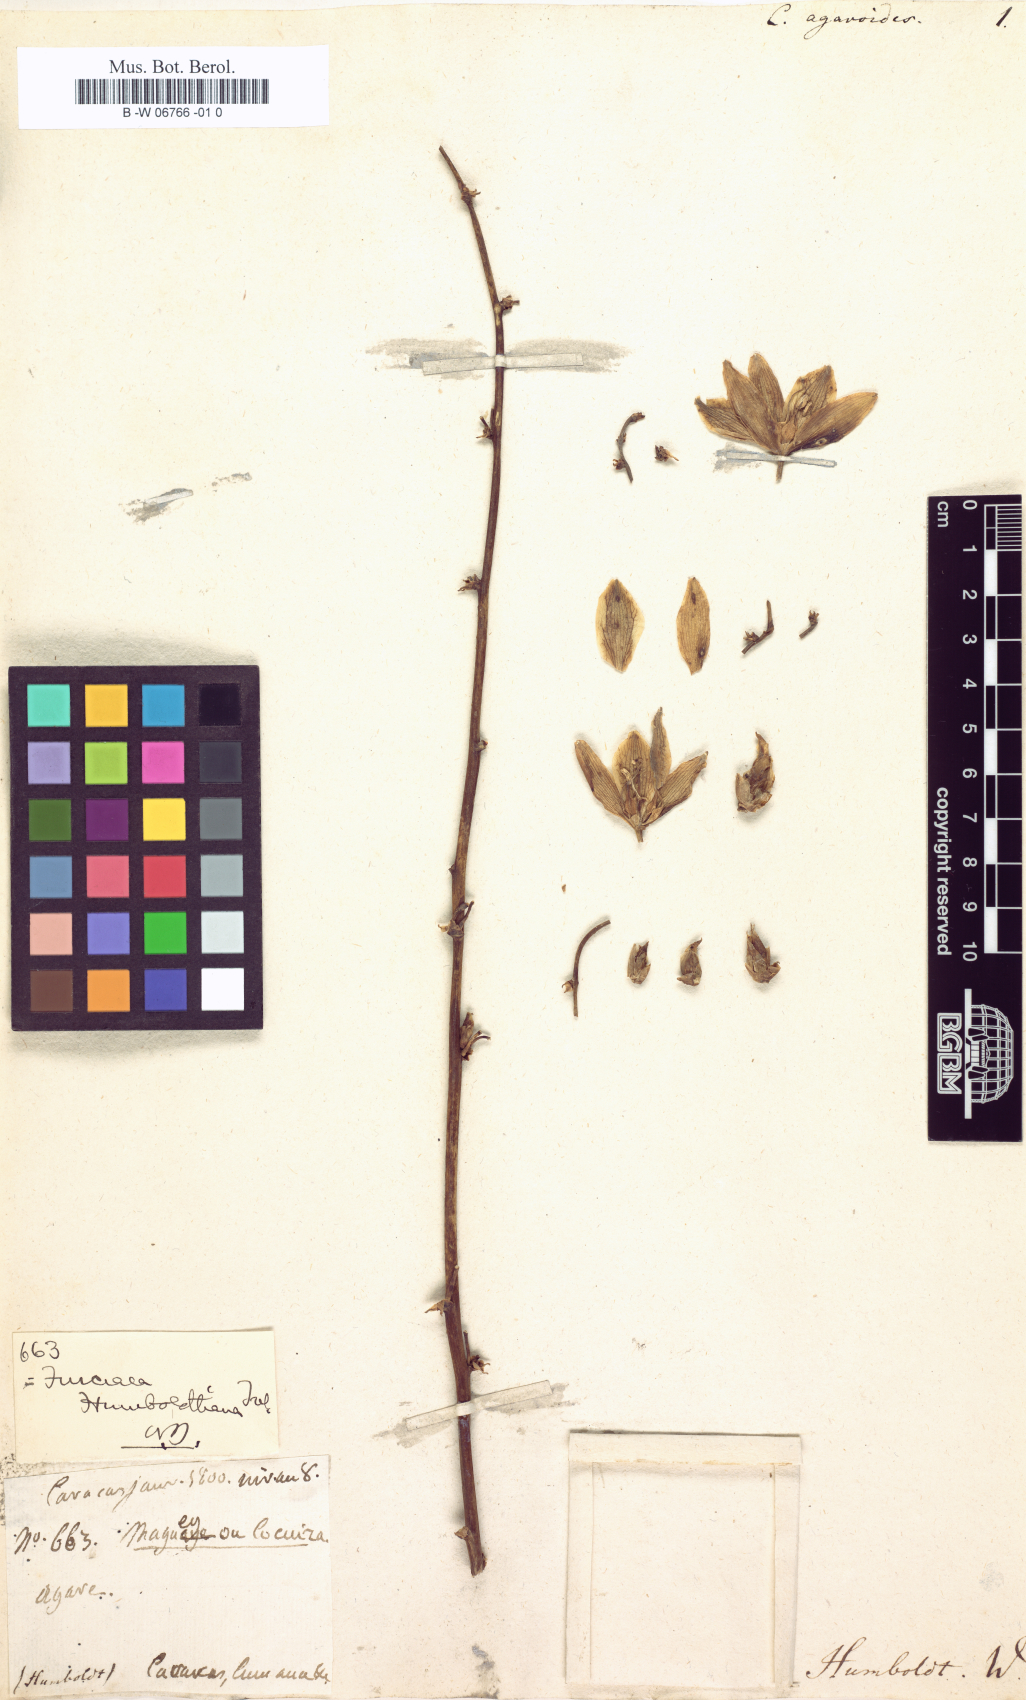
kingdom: Plantae
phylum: Tracheophyta
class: Liliopsida
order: Asparagales
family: Asparagaceae
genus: Furcraea
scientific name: Furcraea acaulis
